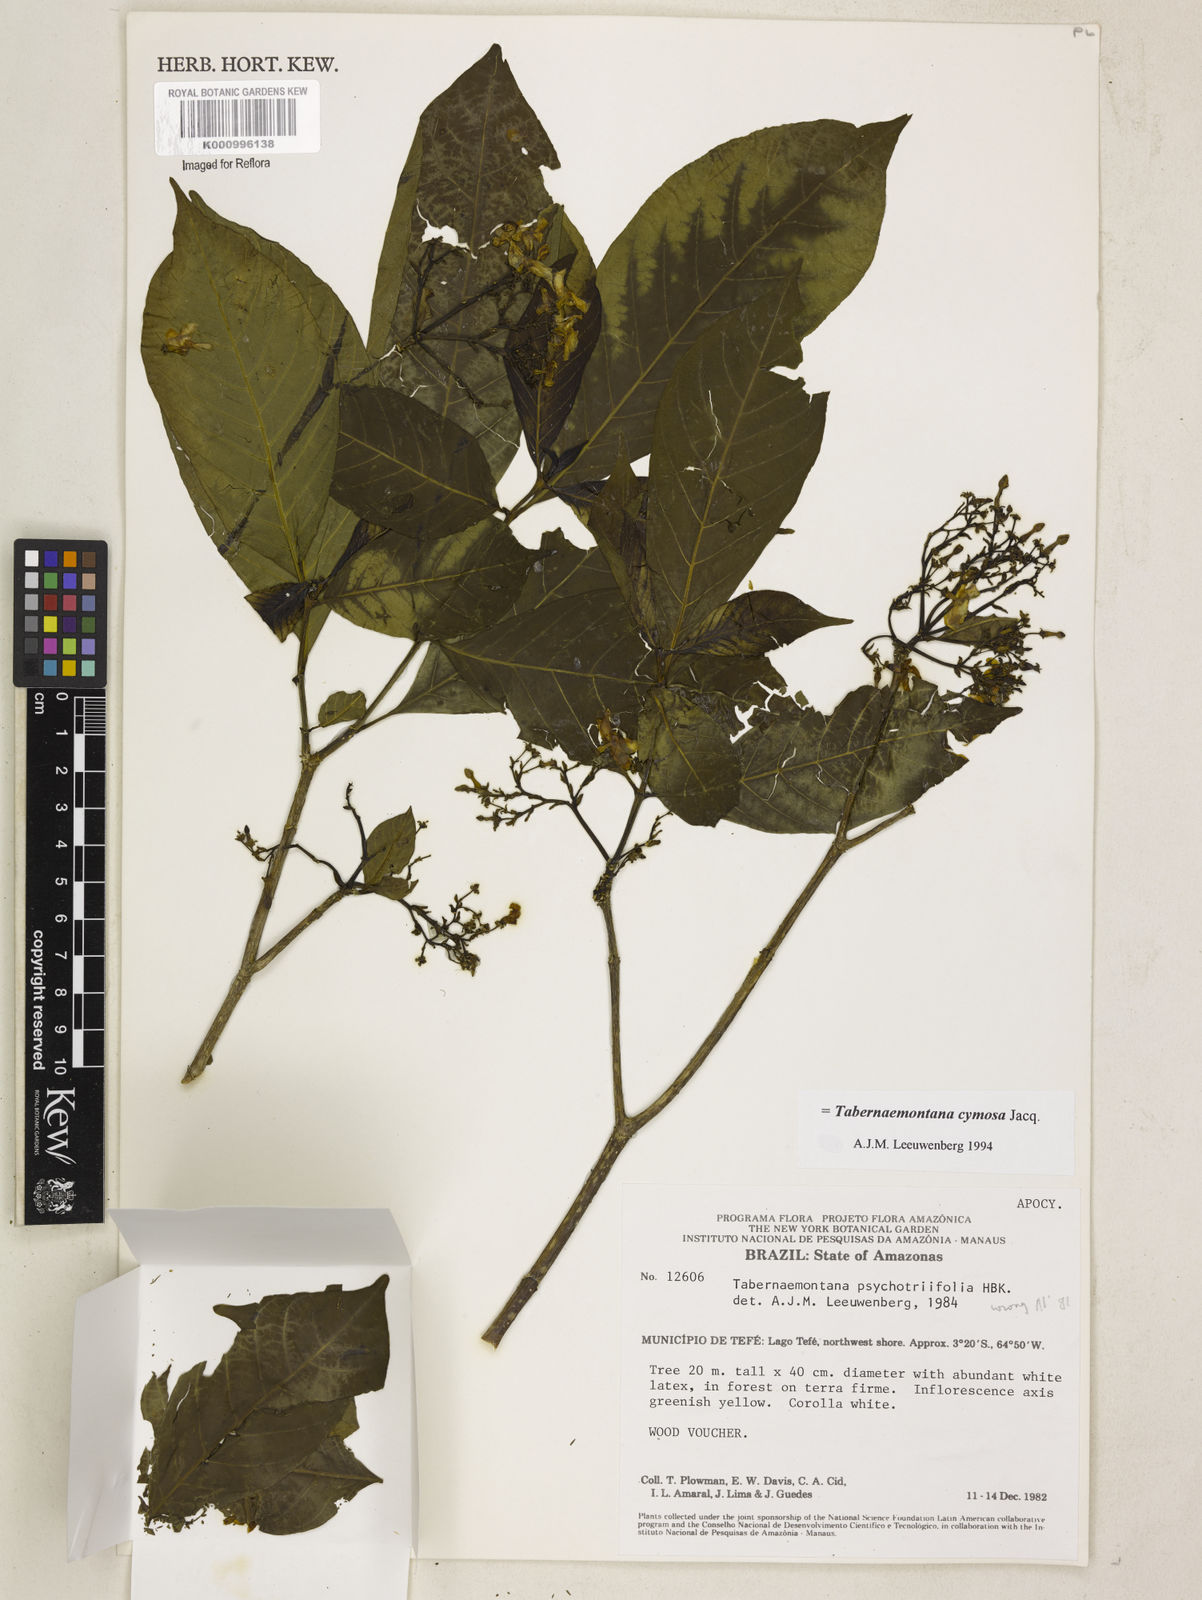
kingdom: Plantae
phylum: Tracheophyta
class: Magnoliopsida
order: Gentianales
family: Apocynaceae
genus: Tabernaemontana
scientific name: Tabernaemontana cymosa
